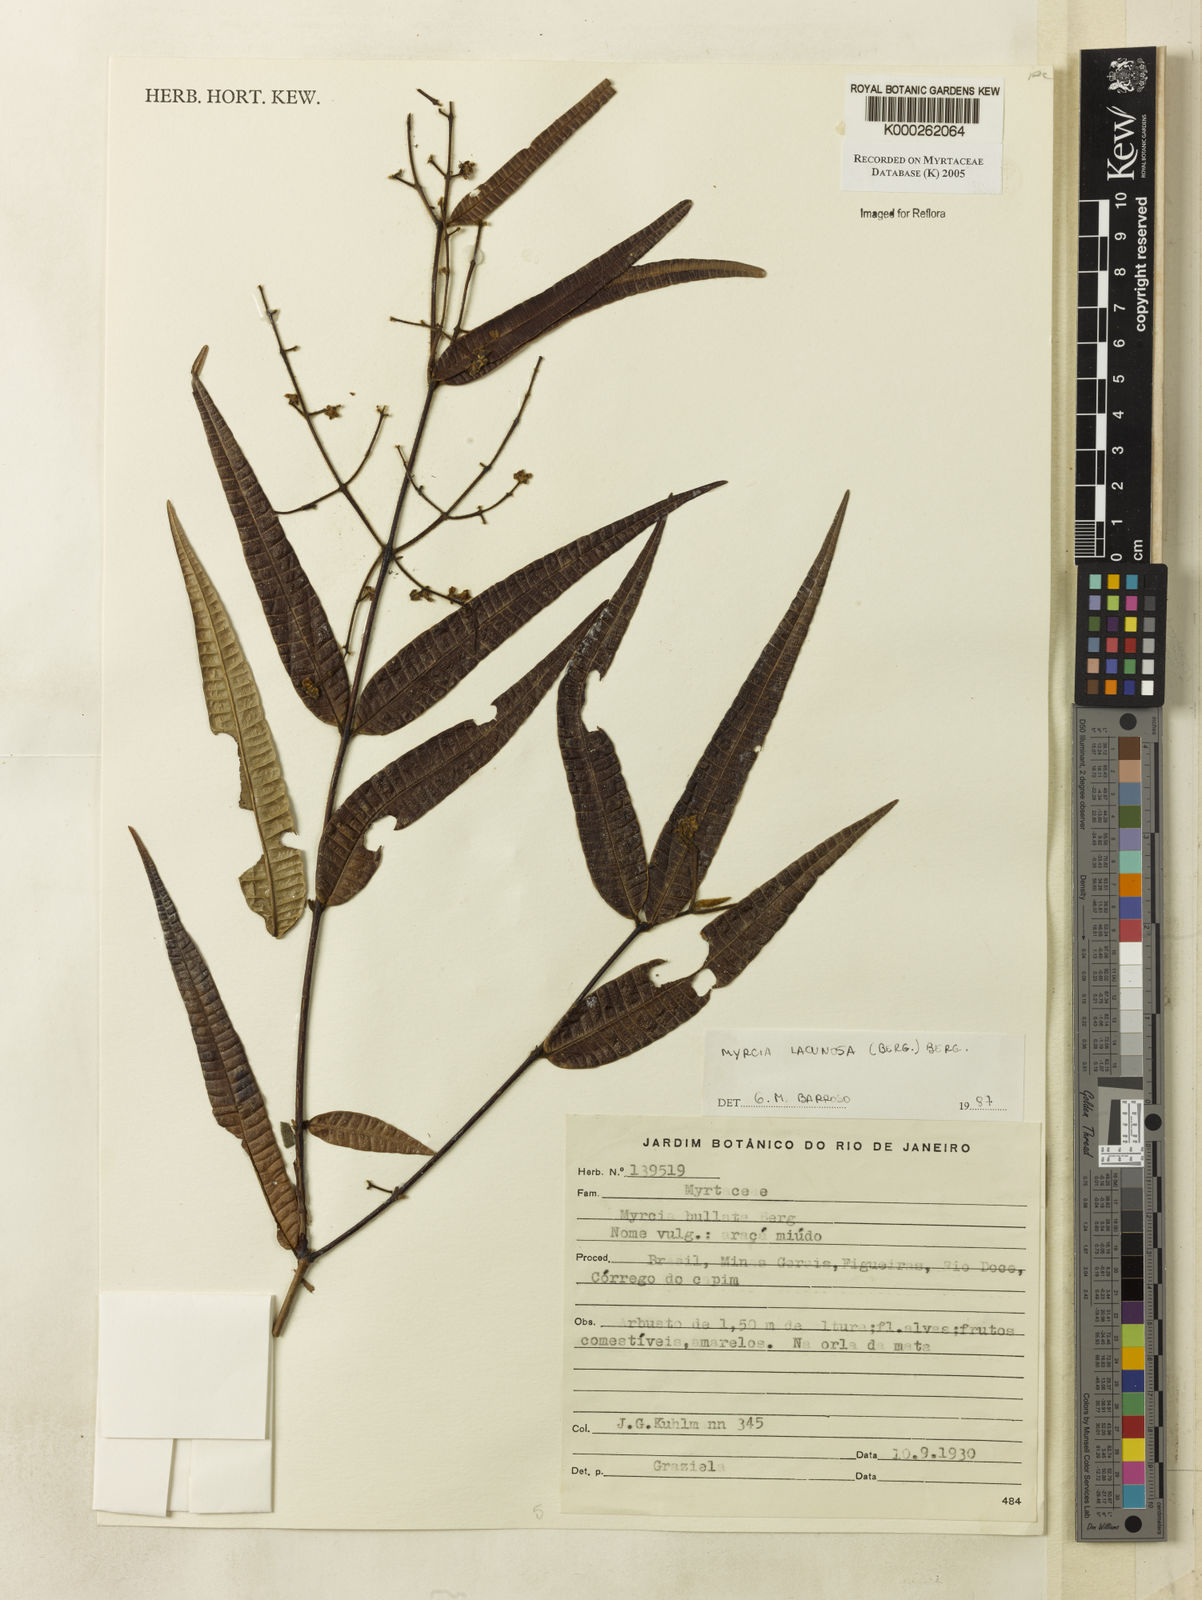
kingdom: Plantae
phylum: Tracheophyta
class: Magnoliopsida
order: Myrtales
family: Myrtaceae
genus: Myrcia
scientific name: Myrcia lacunosa
